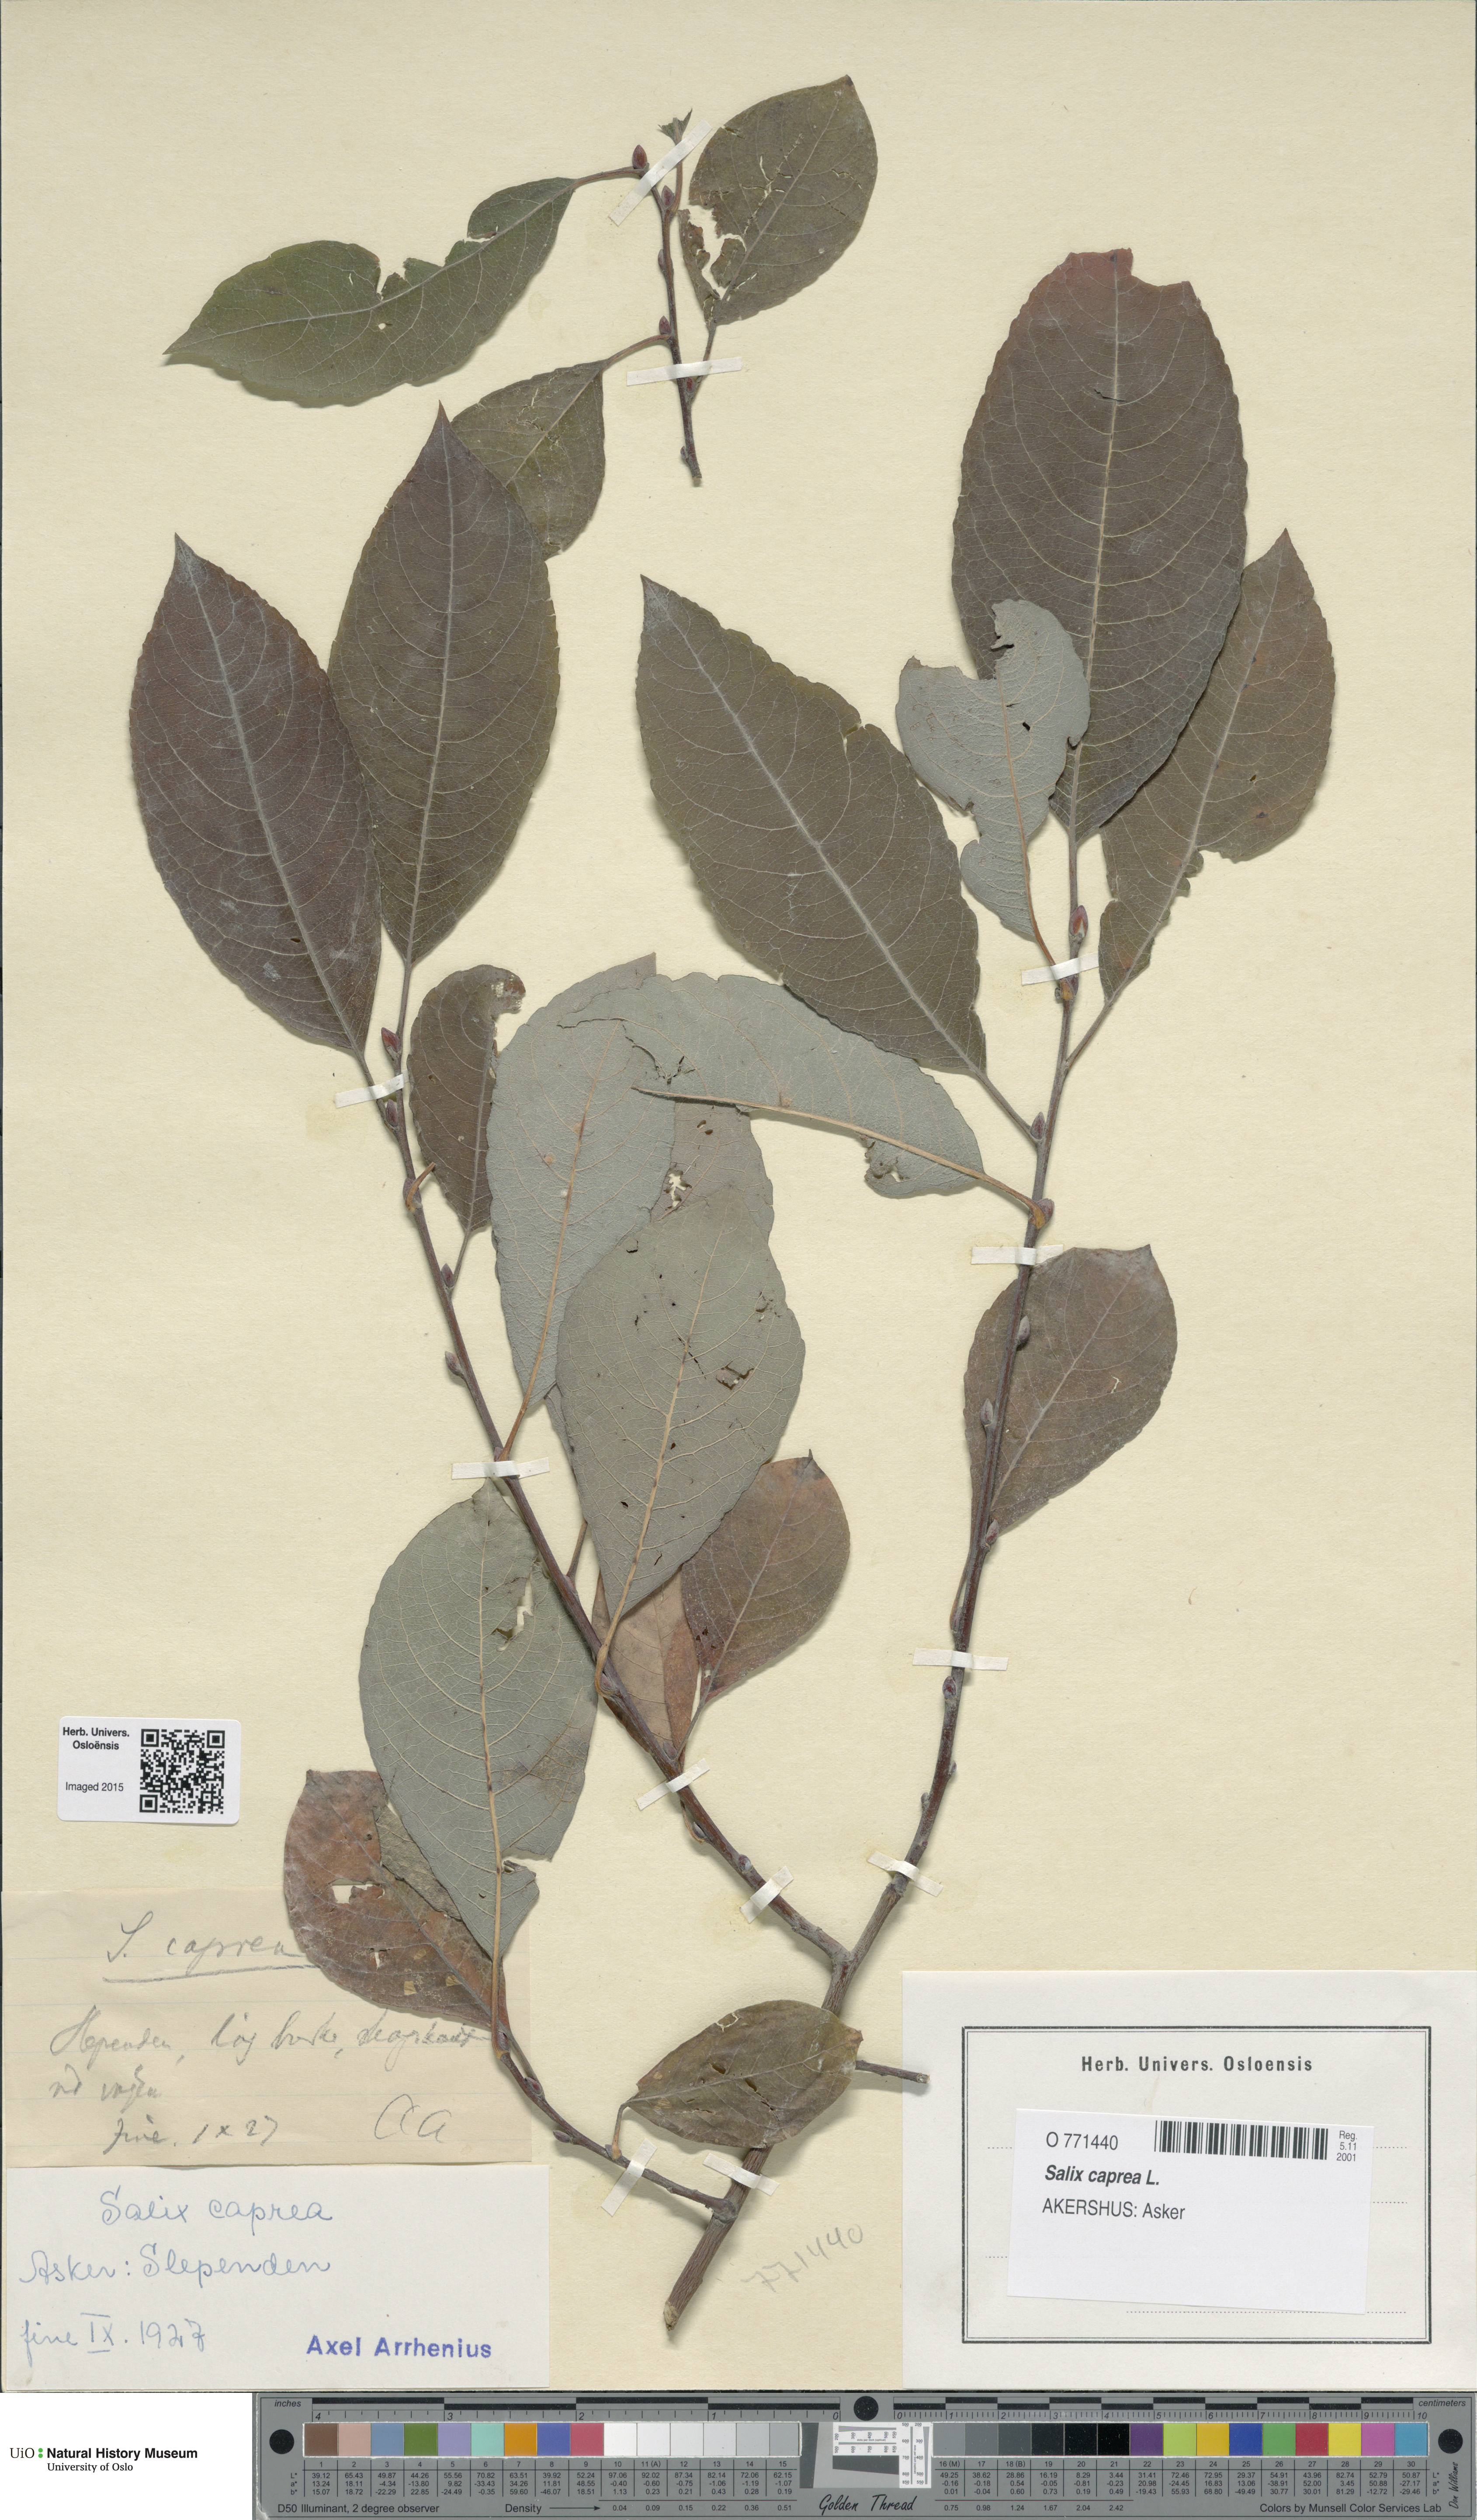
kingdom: Plantae
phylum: Tracheophyta
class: Magnoliopsida
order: Malpighiales
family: Salicaceae
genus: Salix
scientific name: Salix caprea
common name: Goat willow
